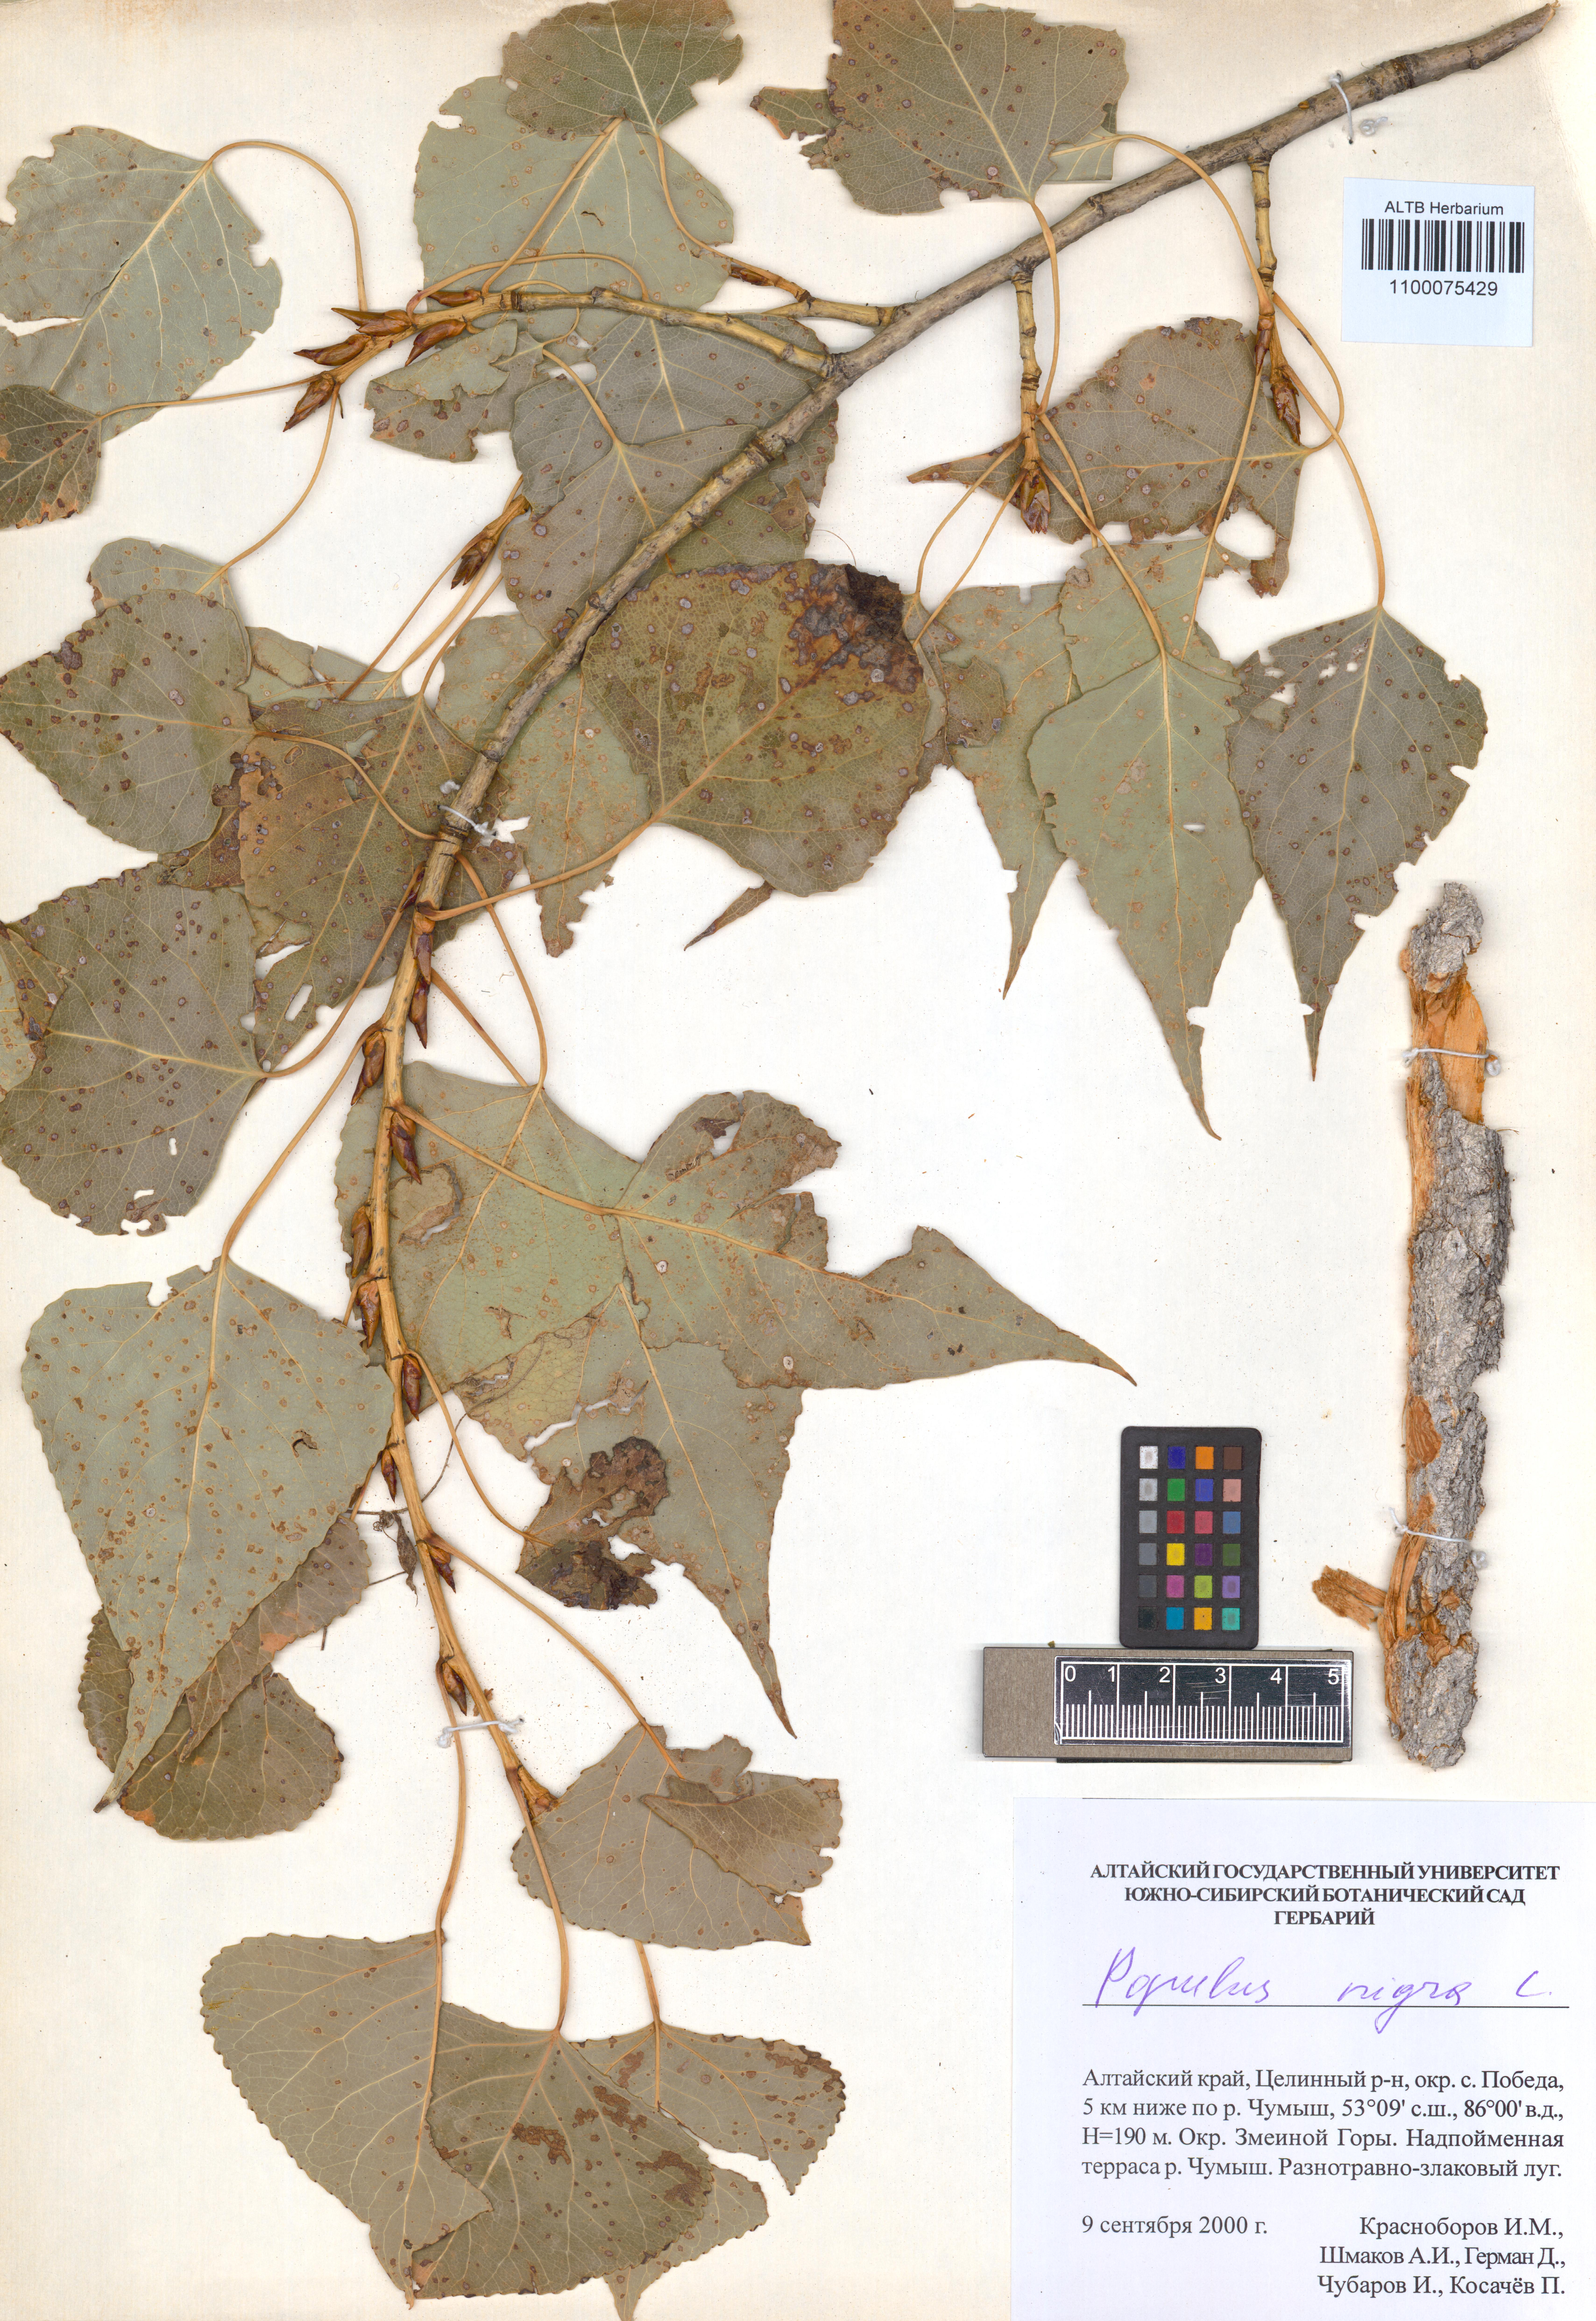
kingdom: Plantae
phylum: Tracheophyta
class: Magnoliopsida
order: Malpighiales
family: Salicaceae
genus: Populus
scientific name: Populus nigra
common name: Black poplar
